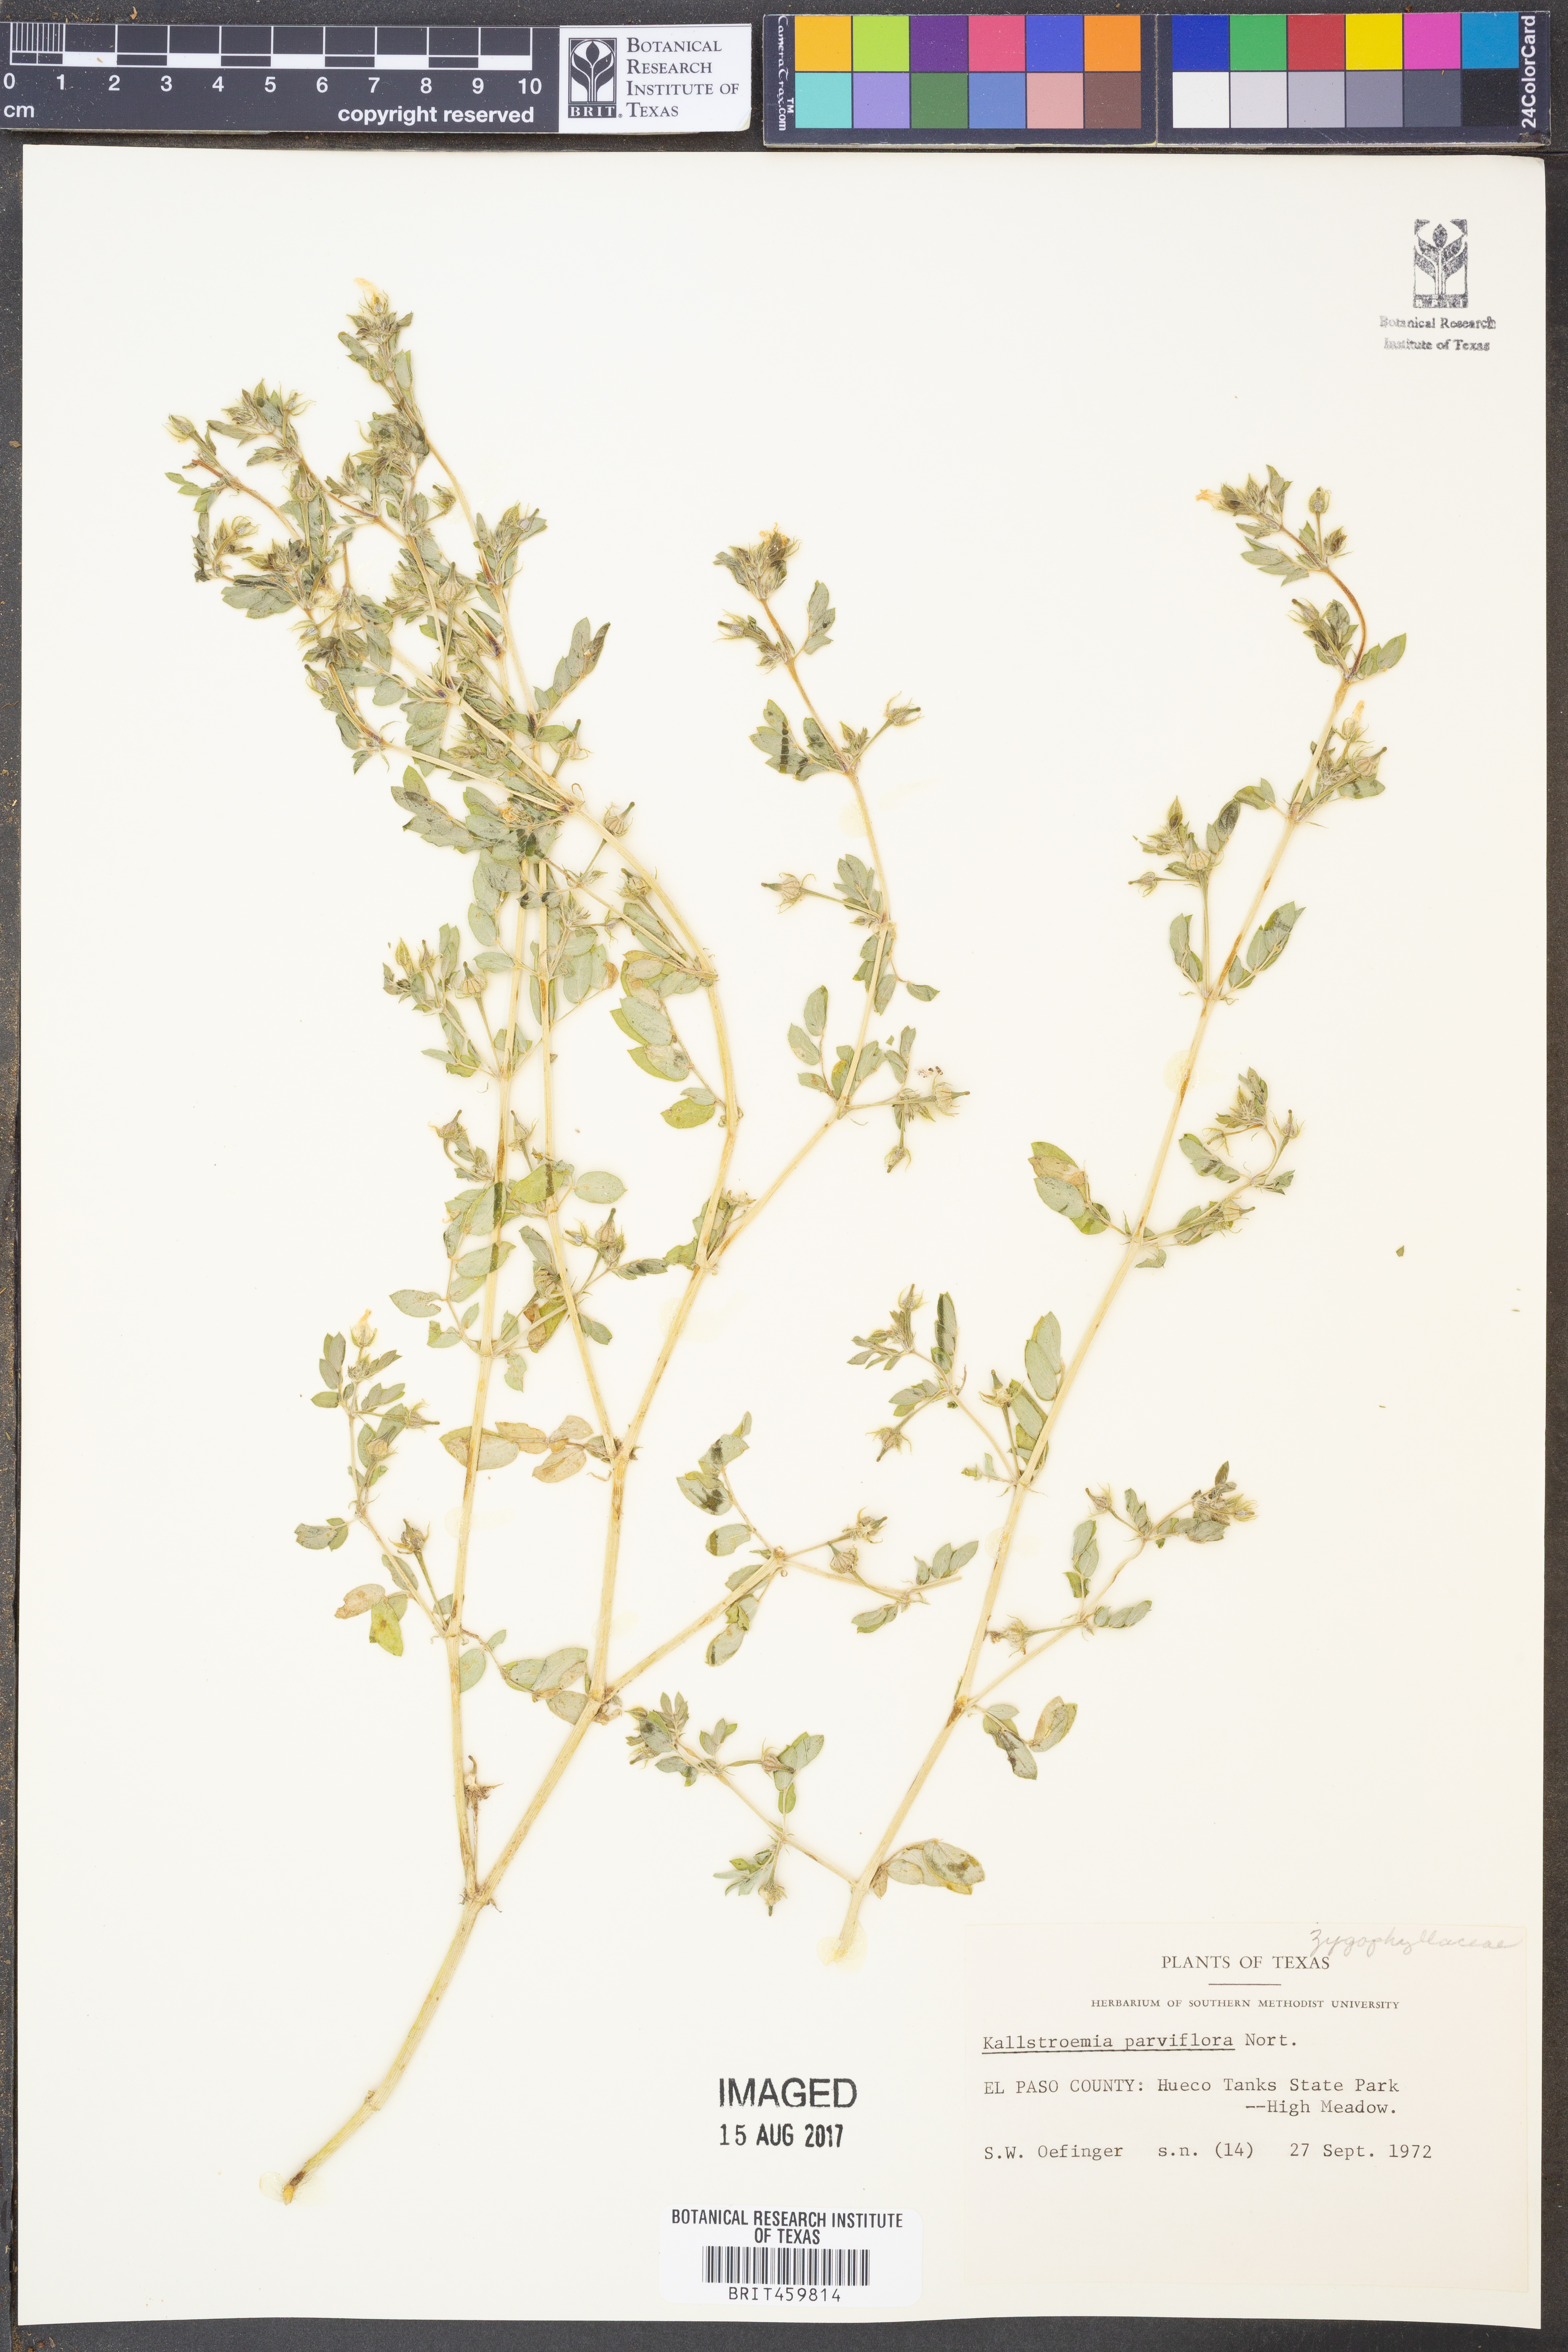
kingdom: Plantae
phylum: Tracheophyta
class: Magnoliopsida
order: Zygophyllales
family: Zygophyllaceae
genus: Kallstroemia
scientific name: Kallstroemia parviflora
